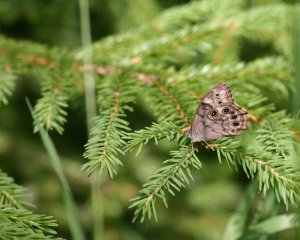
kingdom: Animalia
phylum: Arthropoda
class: Insecta
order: Lepidoptera
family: Nymphalidae
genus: Lethe
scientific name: Lethe anthedon
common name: Northern Pearly-Eye
